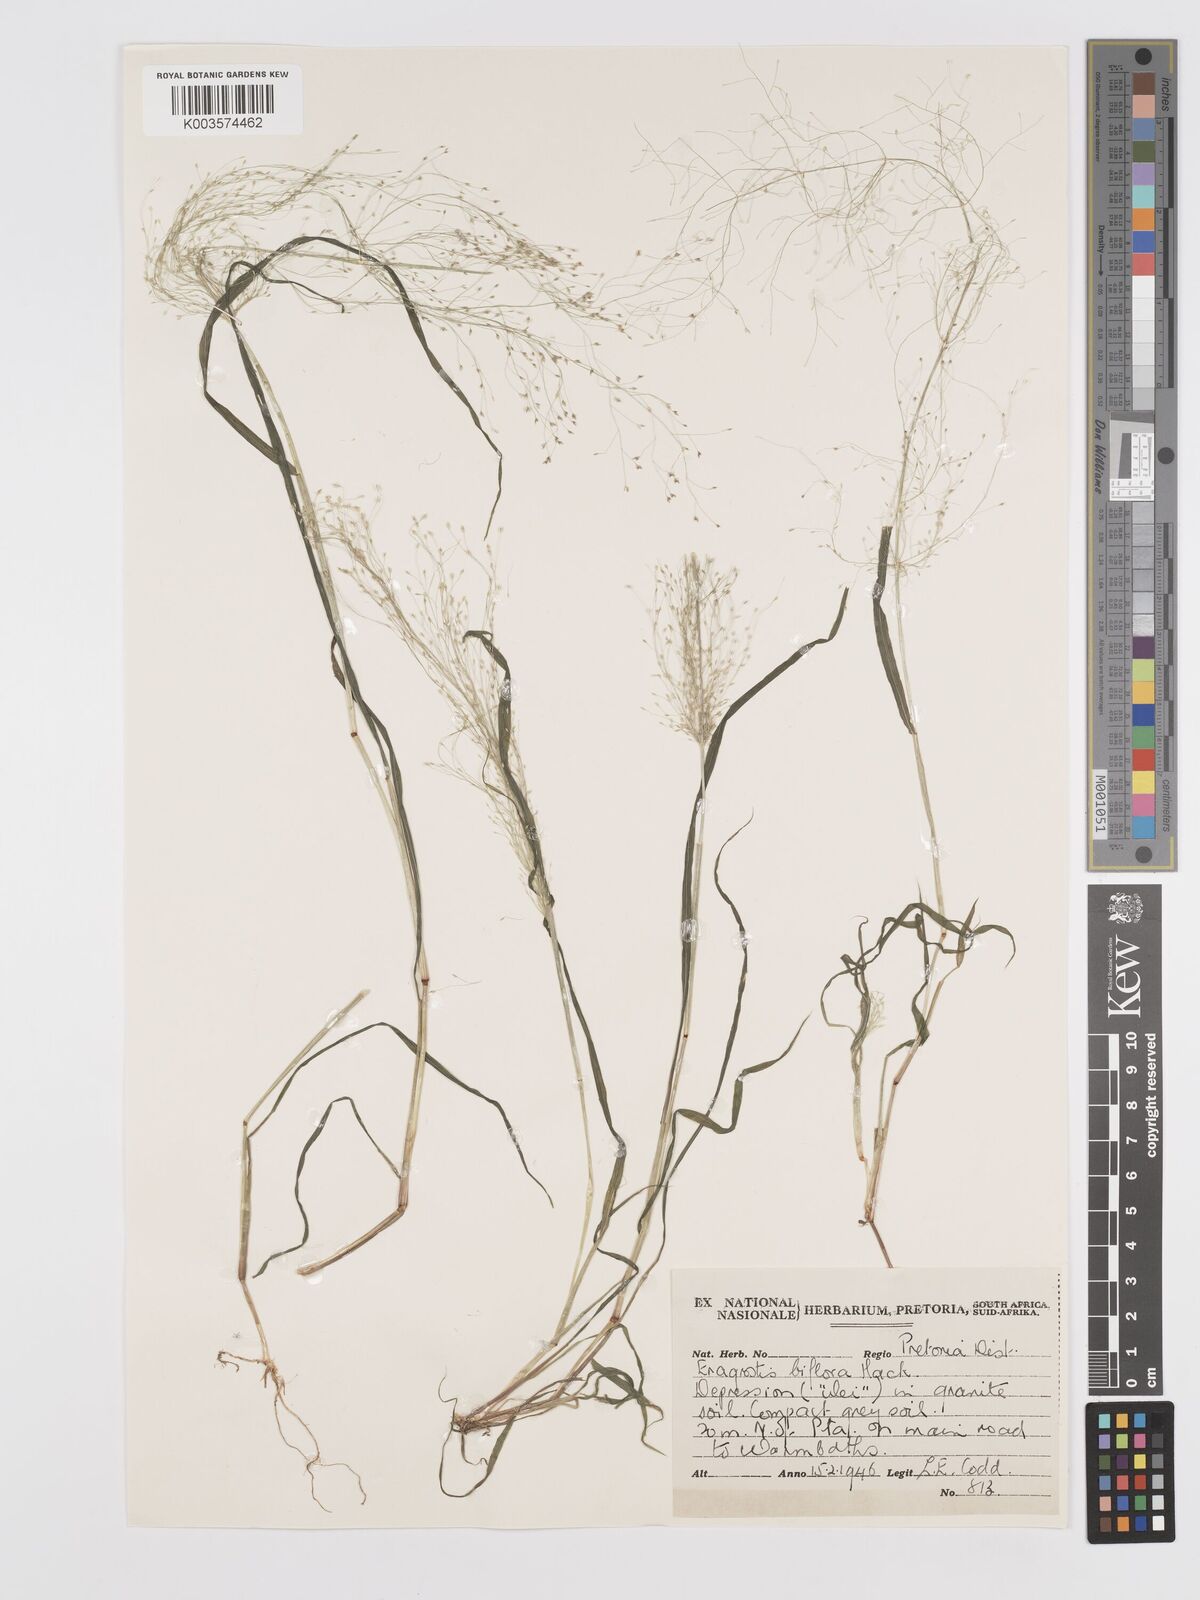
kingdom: Plantae
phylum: Tracheophyta
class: Liliopsida
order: Poales
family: Poaceae
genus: Eragrostis
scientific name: Eragrostis biflora
